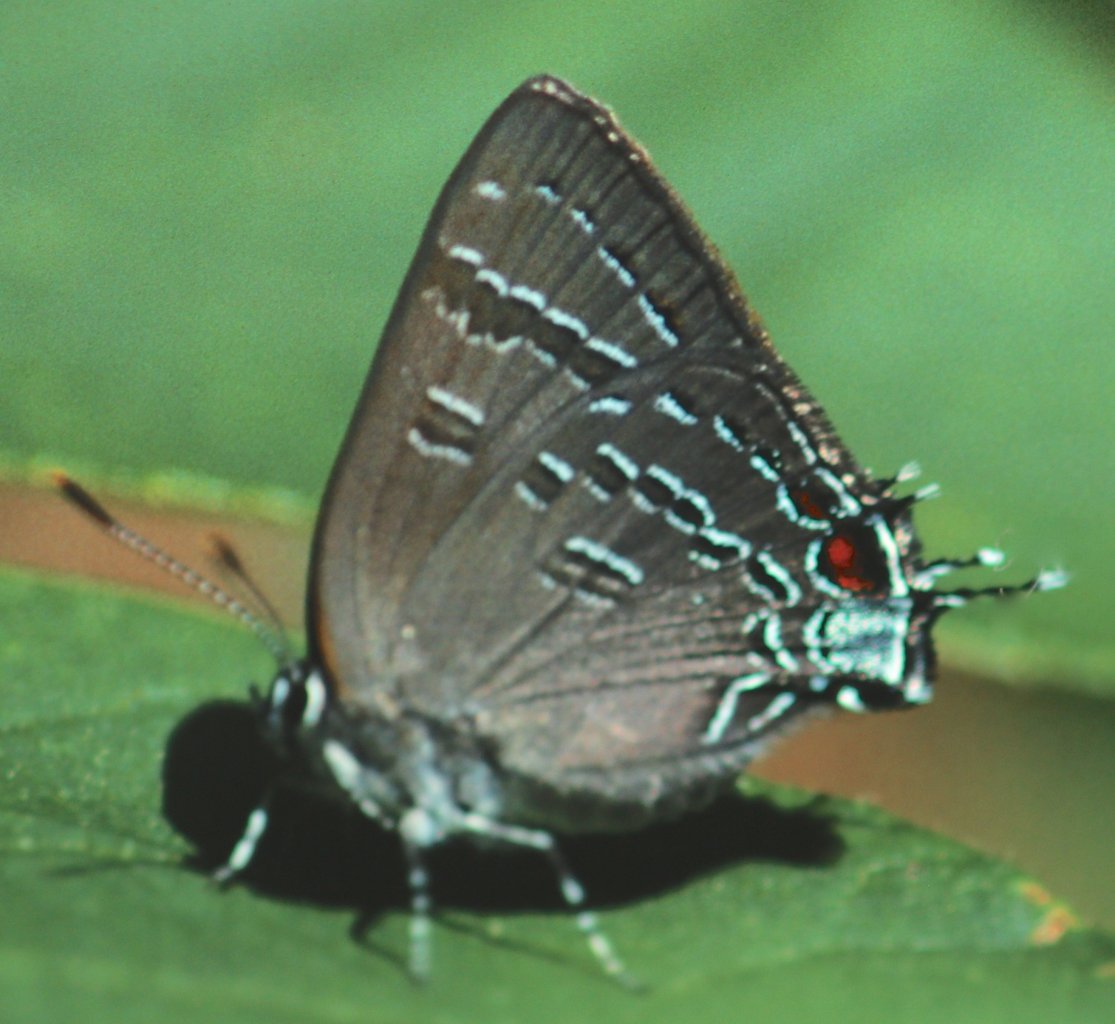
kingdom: Animalia
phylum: Arthropoda
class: Insecta
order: Lepidoptera
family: Lycaenidae
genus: Satyrium
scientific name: Satyrium calanus
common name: Banded Hairstreak
